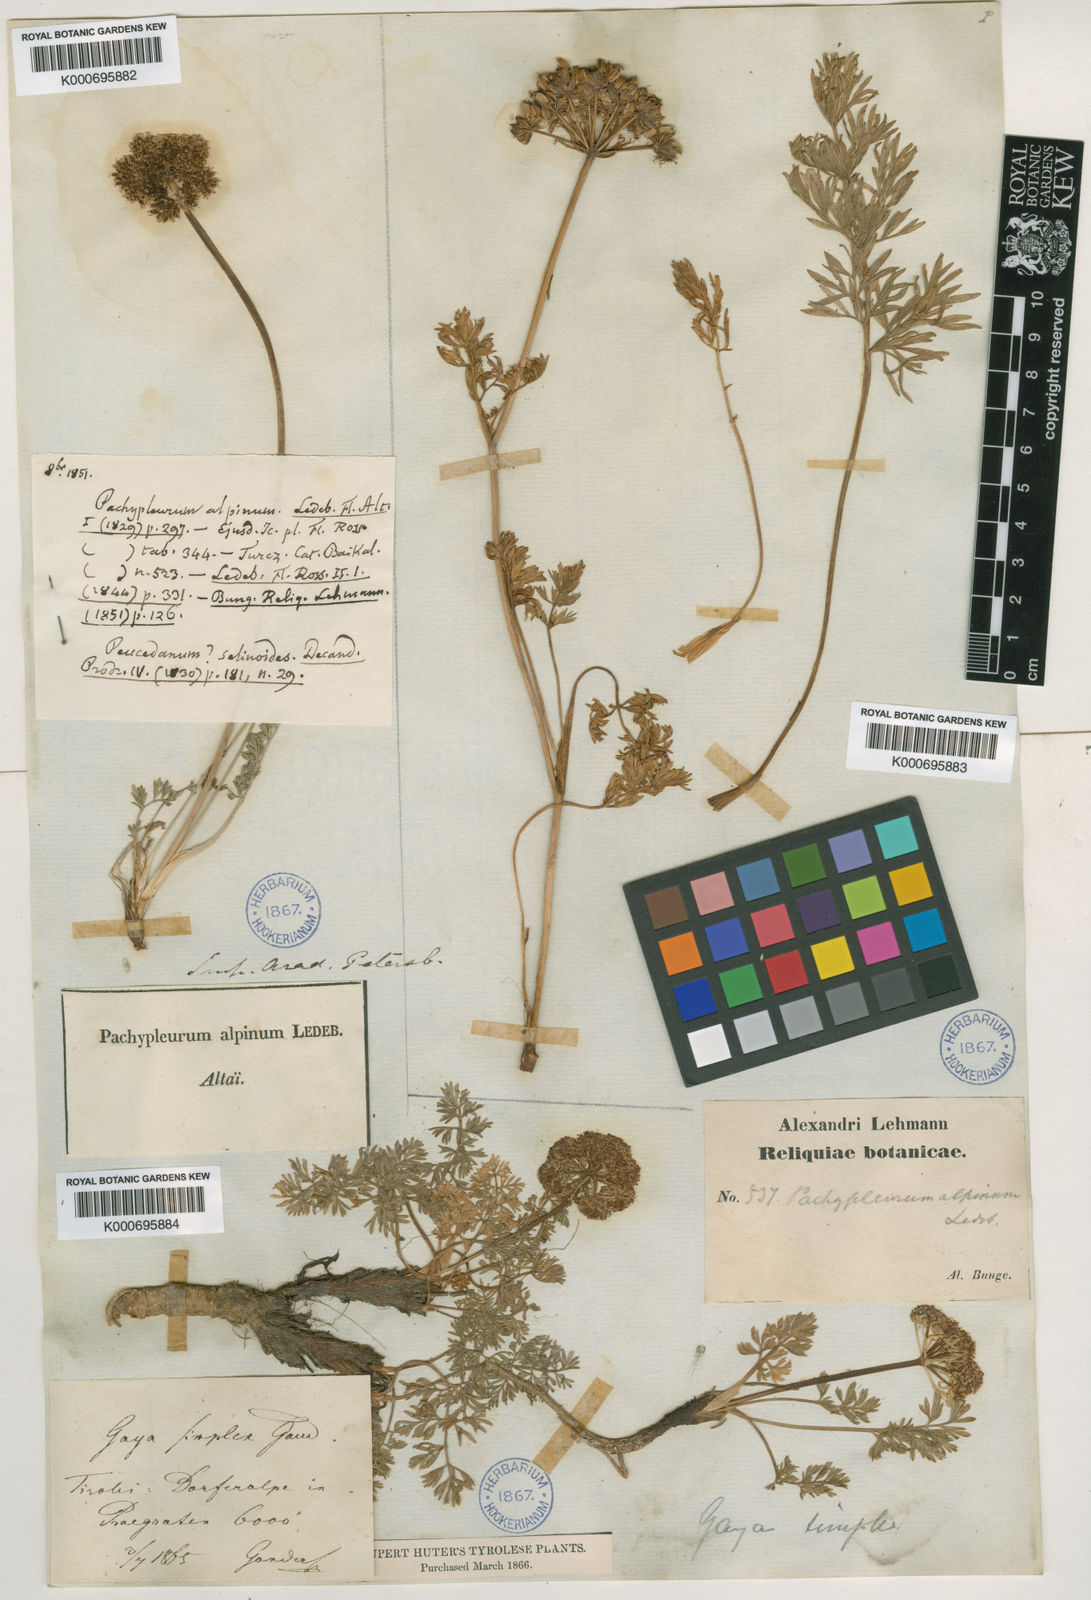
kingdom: Plantae
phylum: Tracheophyta
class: Magnoliopsida
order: Apiales
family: Apiaceae
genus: Pachypleurum
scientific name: Pachypleurum mutellinoides
